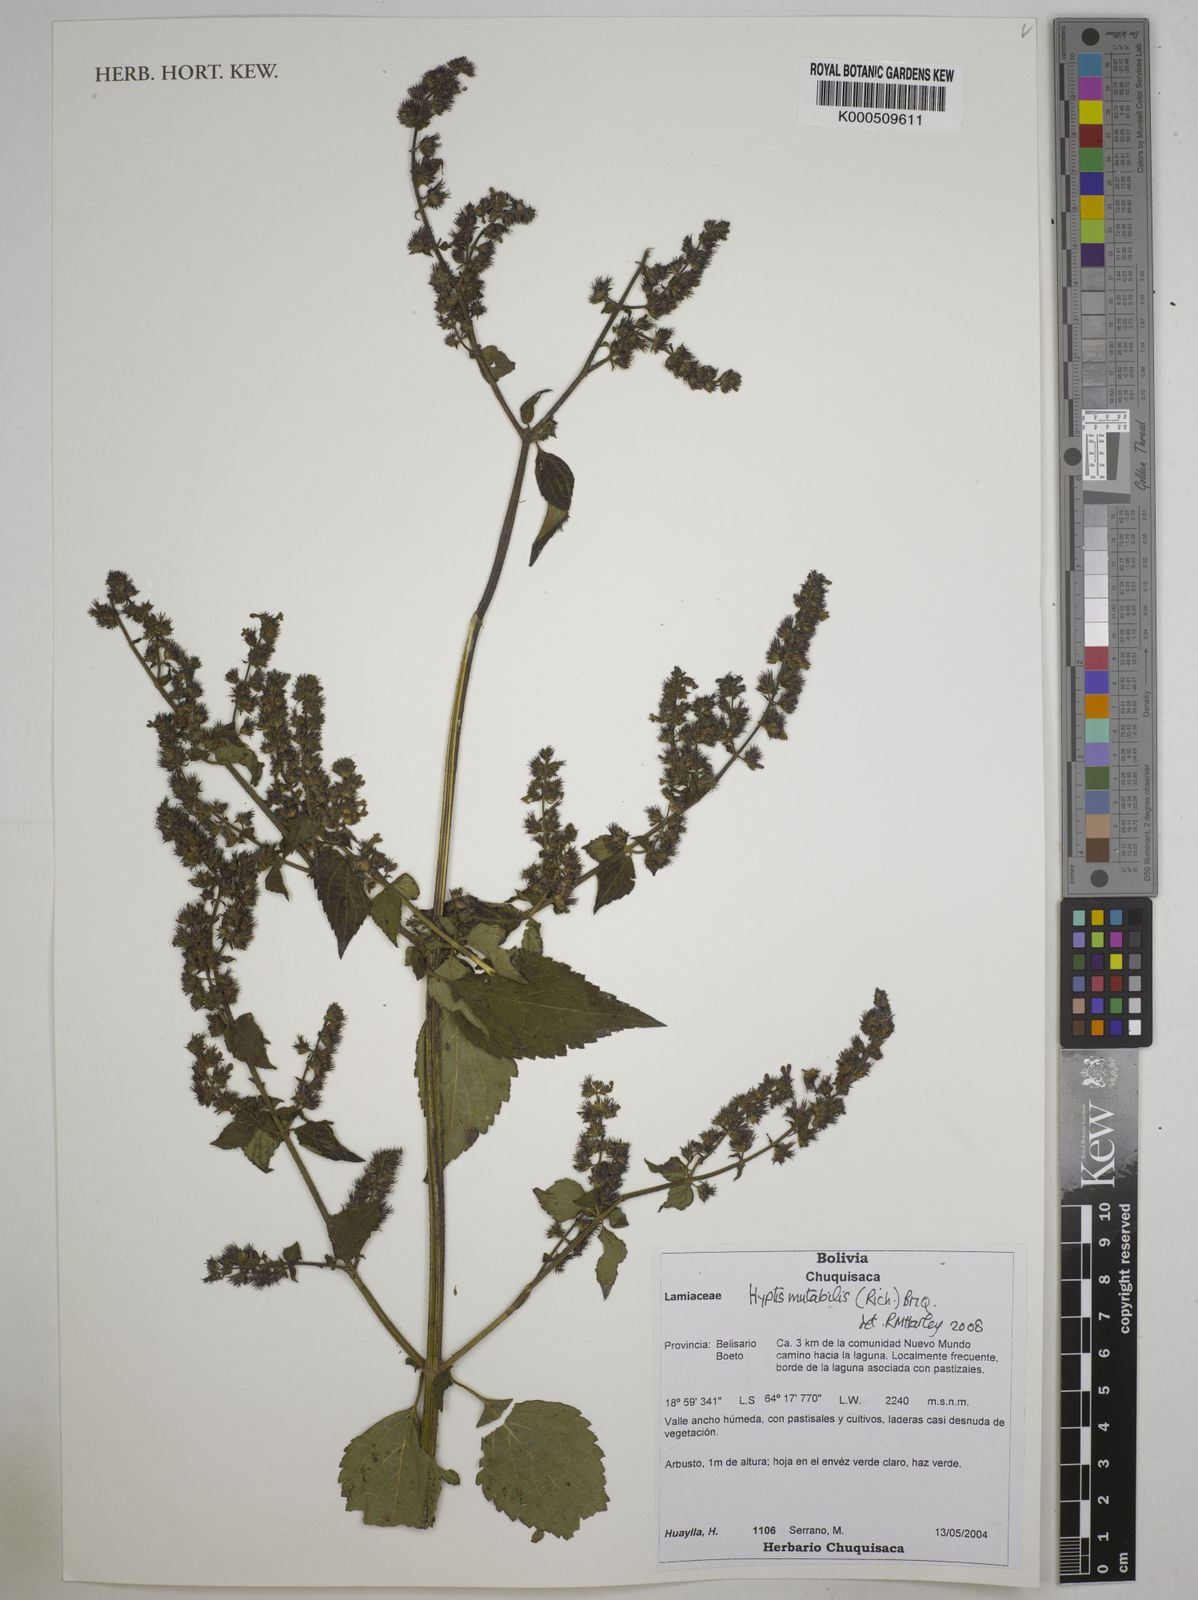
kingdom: Plantae
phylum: Tracheophyta
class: Magnoliopsida
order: Lamiales
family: Lamiaceae
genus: Cantinoa
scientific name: Cantinoa mutabilis
